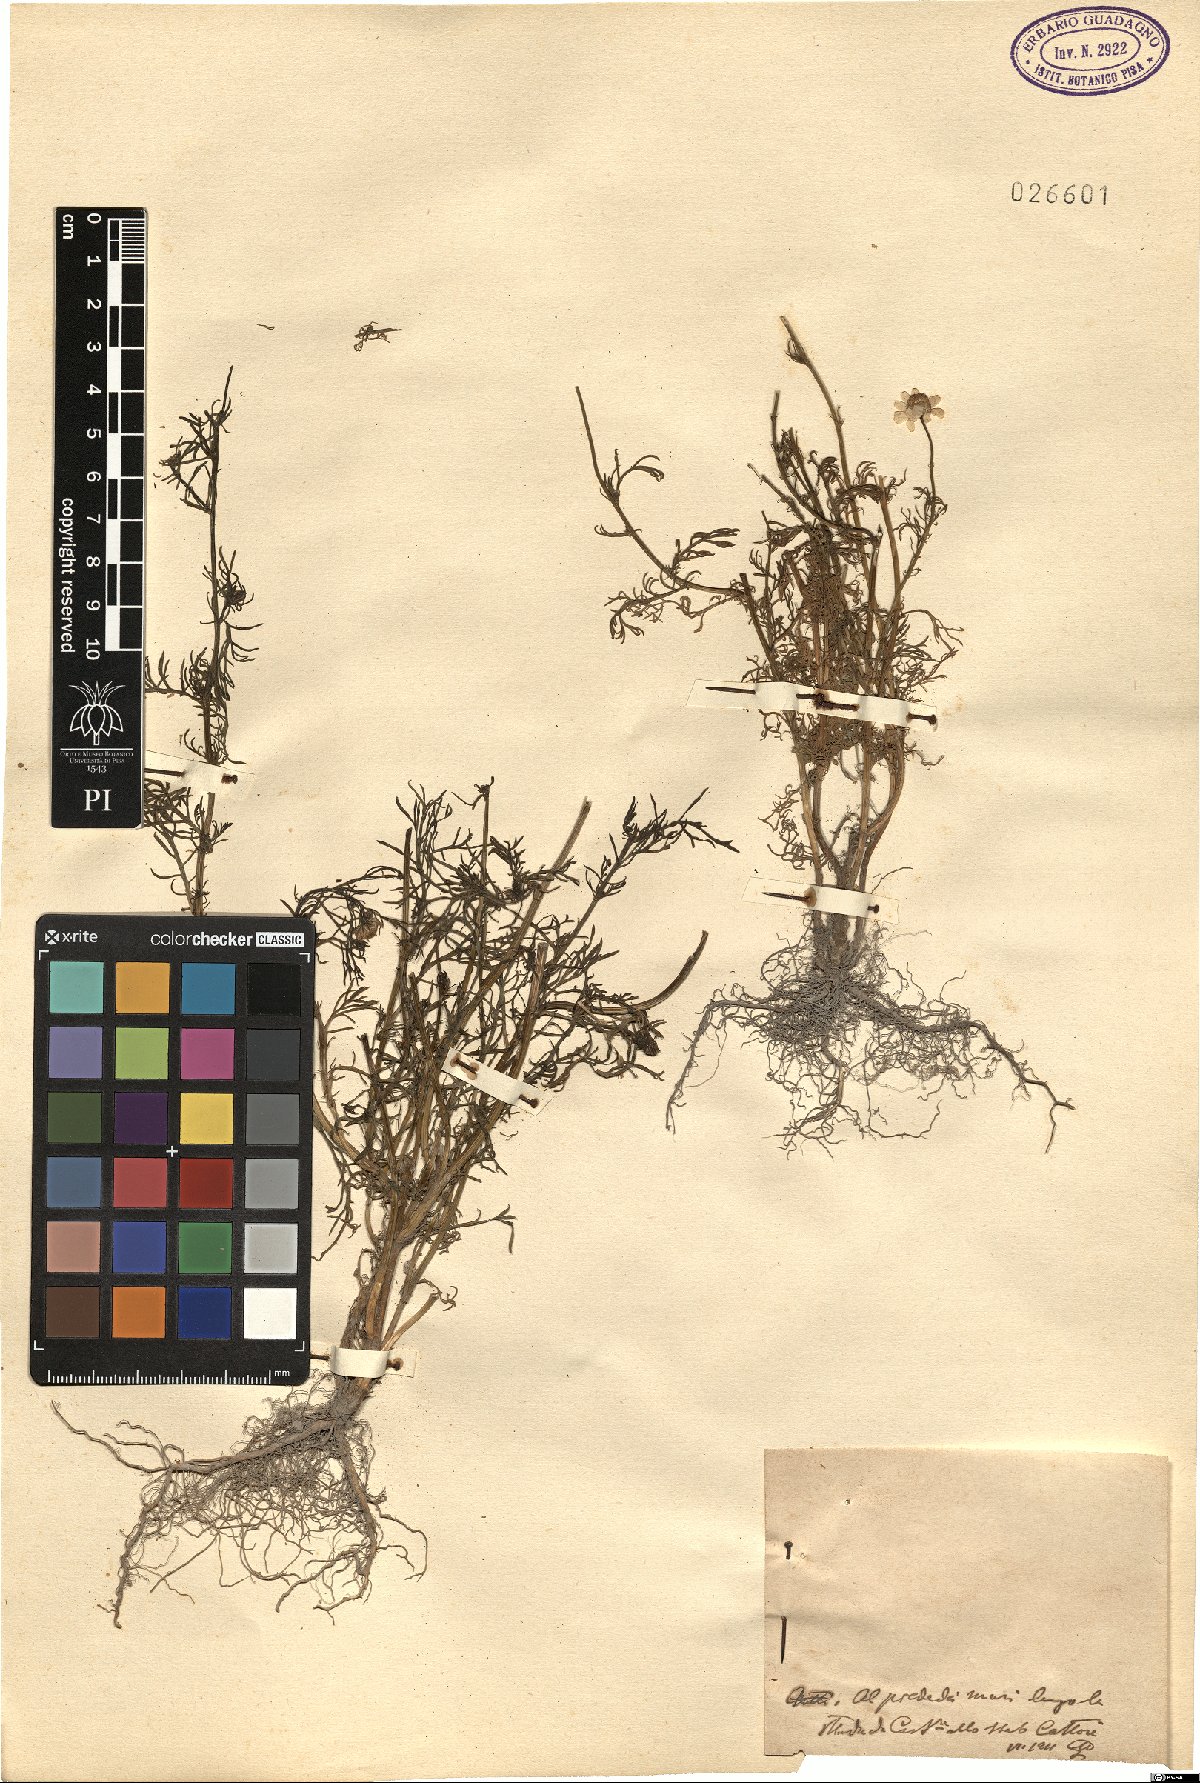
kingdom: Plantae
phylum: Tracheophyta
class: Magnoliopsida
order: Asterales
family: Asteraceae
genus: Matricaria
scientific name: Matricaria
